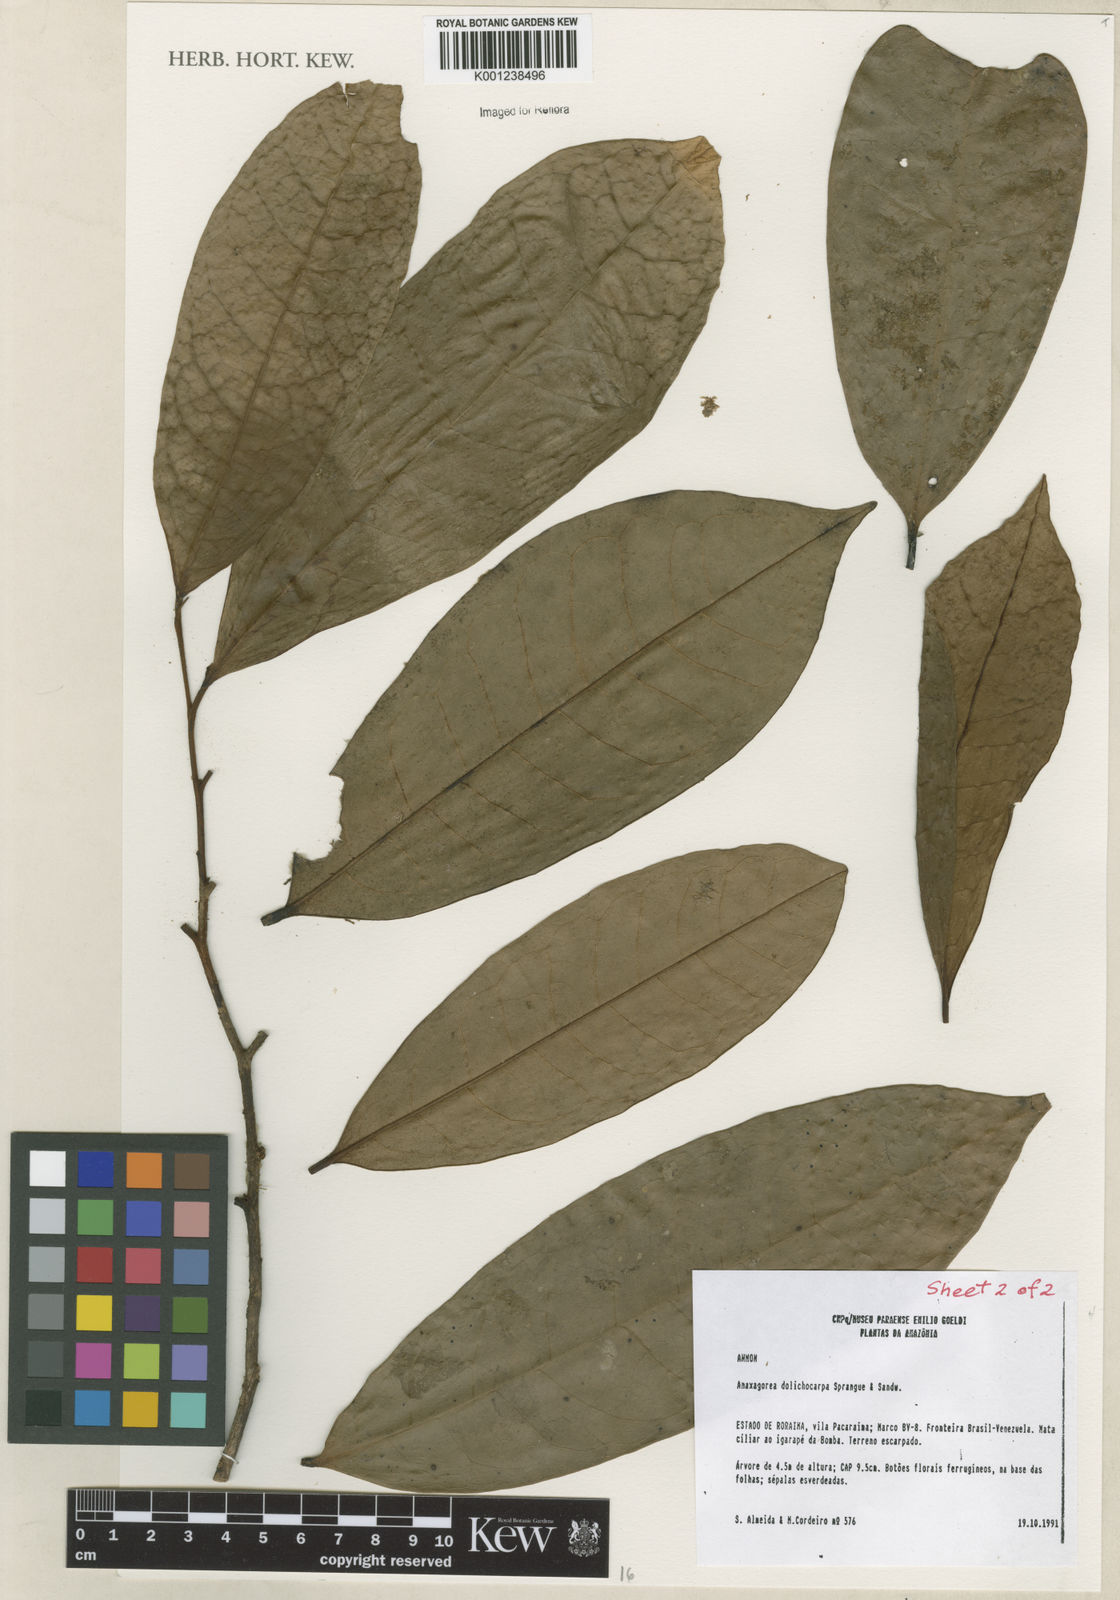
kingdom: Plantae
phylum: Tracheophyta
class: Magnoliopsida
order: Magnoliales
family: Annonaceae
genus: Anaxagorea
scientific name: Anaxagorea dolichocarpa
